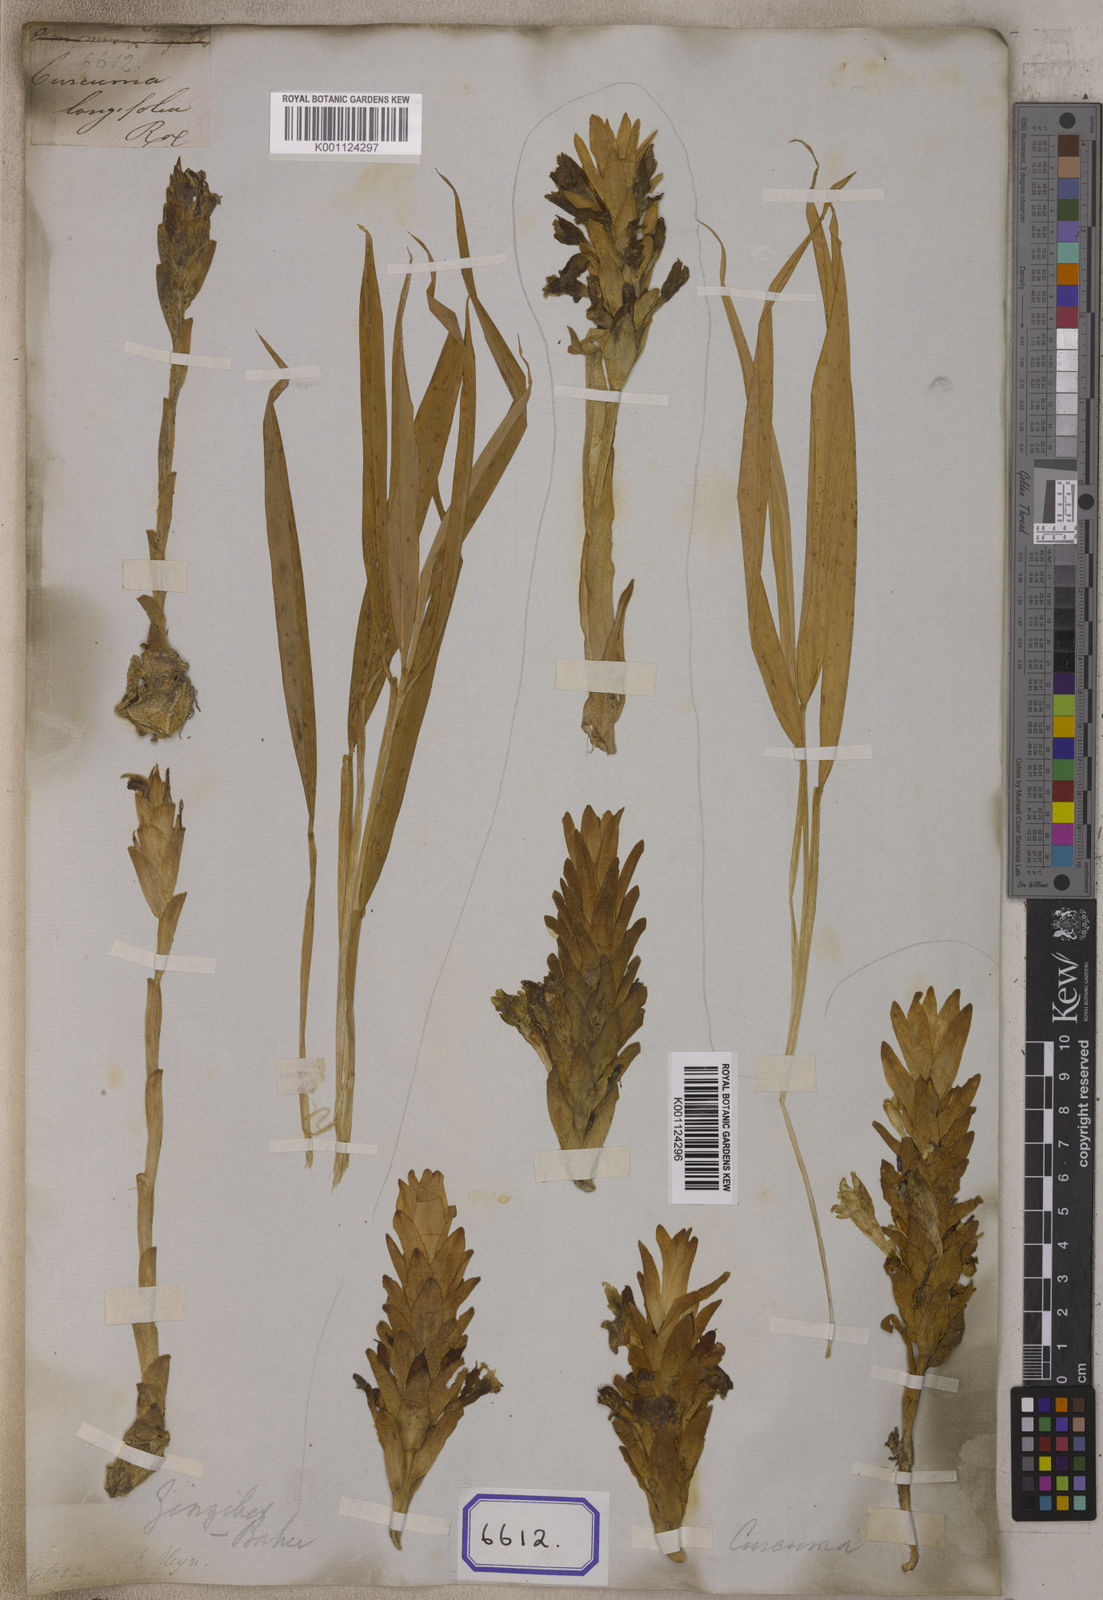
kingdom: Plantae
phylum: Tracheophyta
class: Liliopsida
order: Zingiberales
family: Zingiberaceae
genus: Curcuma
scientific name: Curcuma
